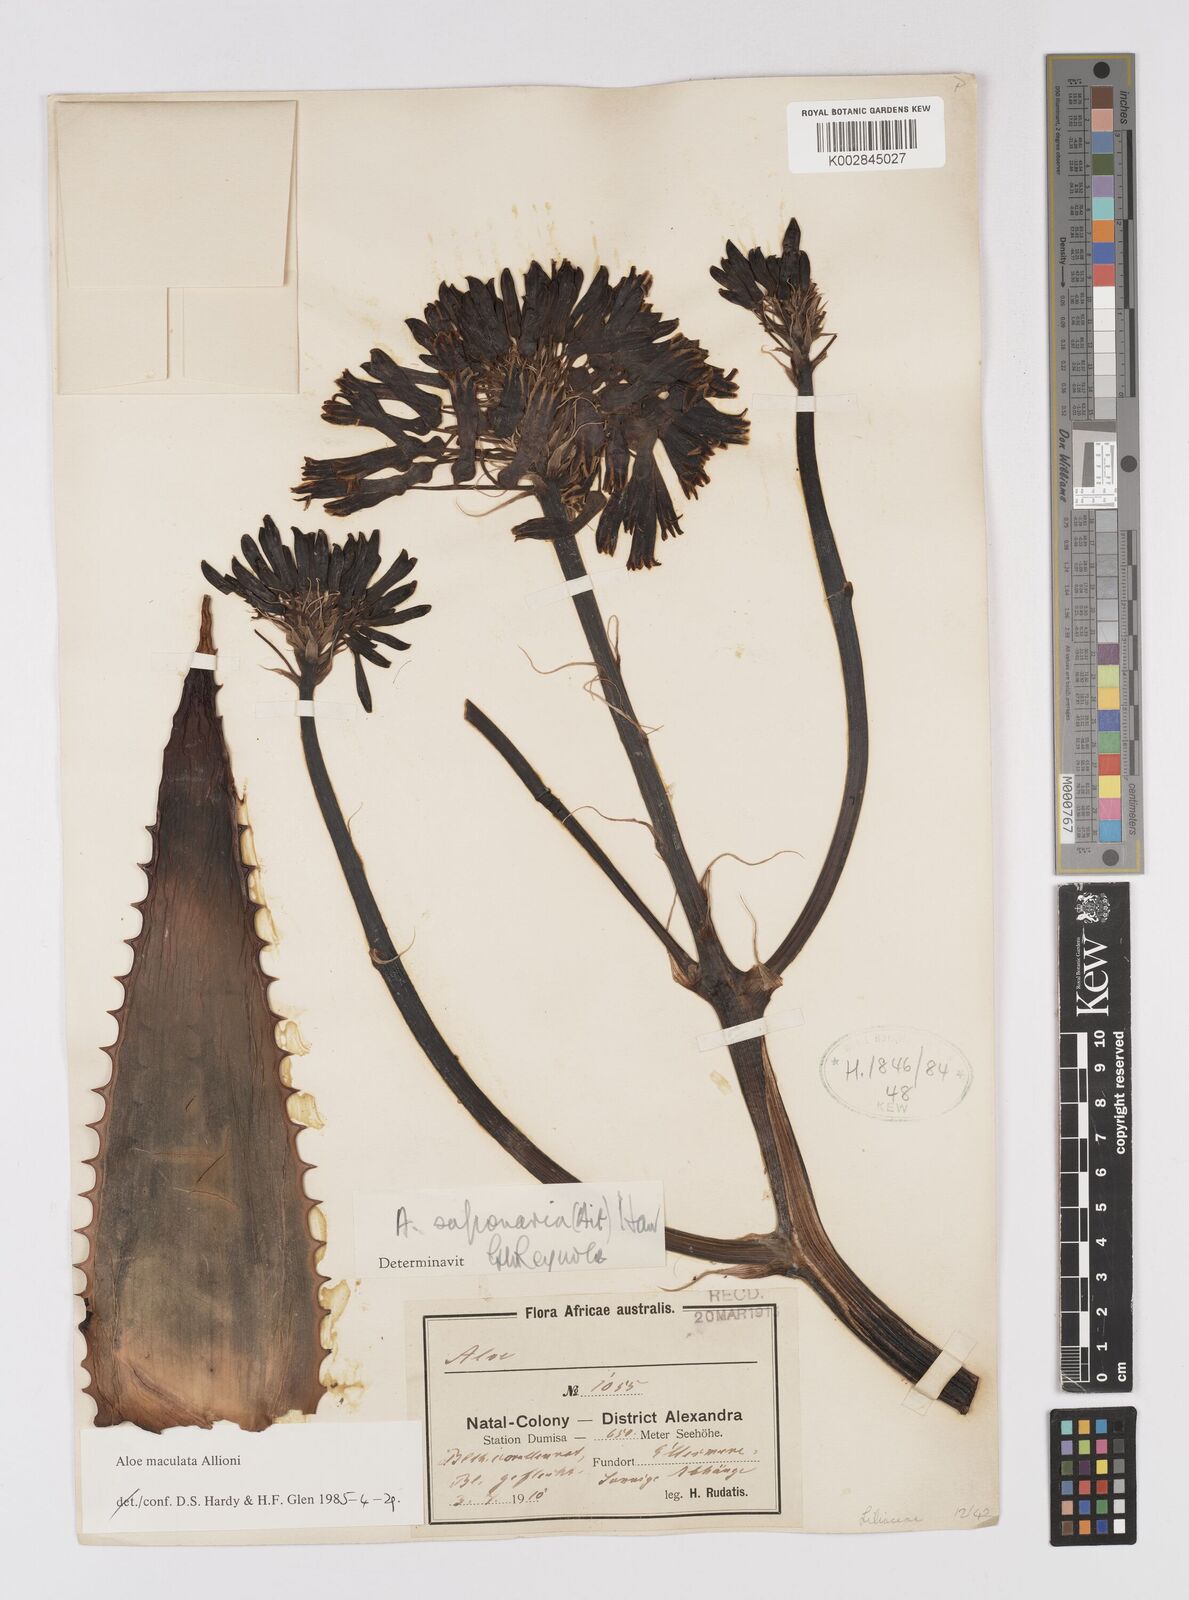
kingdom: Plantae
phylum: Tracheophyta
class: Liliopsida
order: Asparagales
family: Asphodelaceae
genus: Aloe
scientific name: Aloe maculata
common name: Broadleaf aloe
